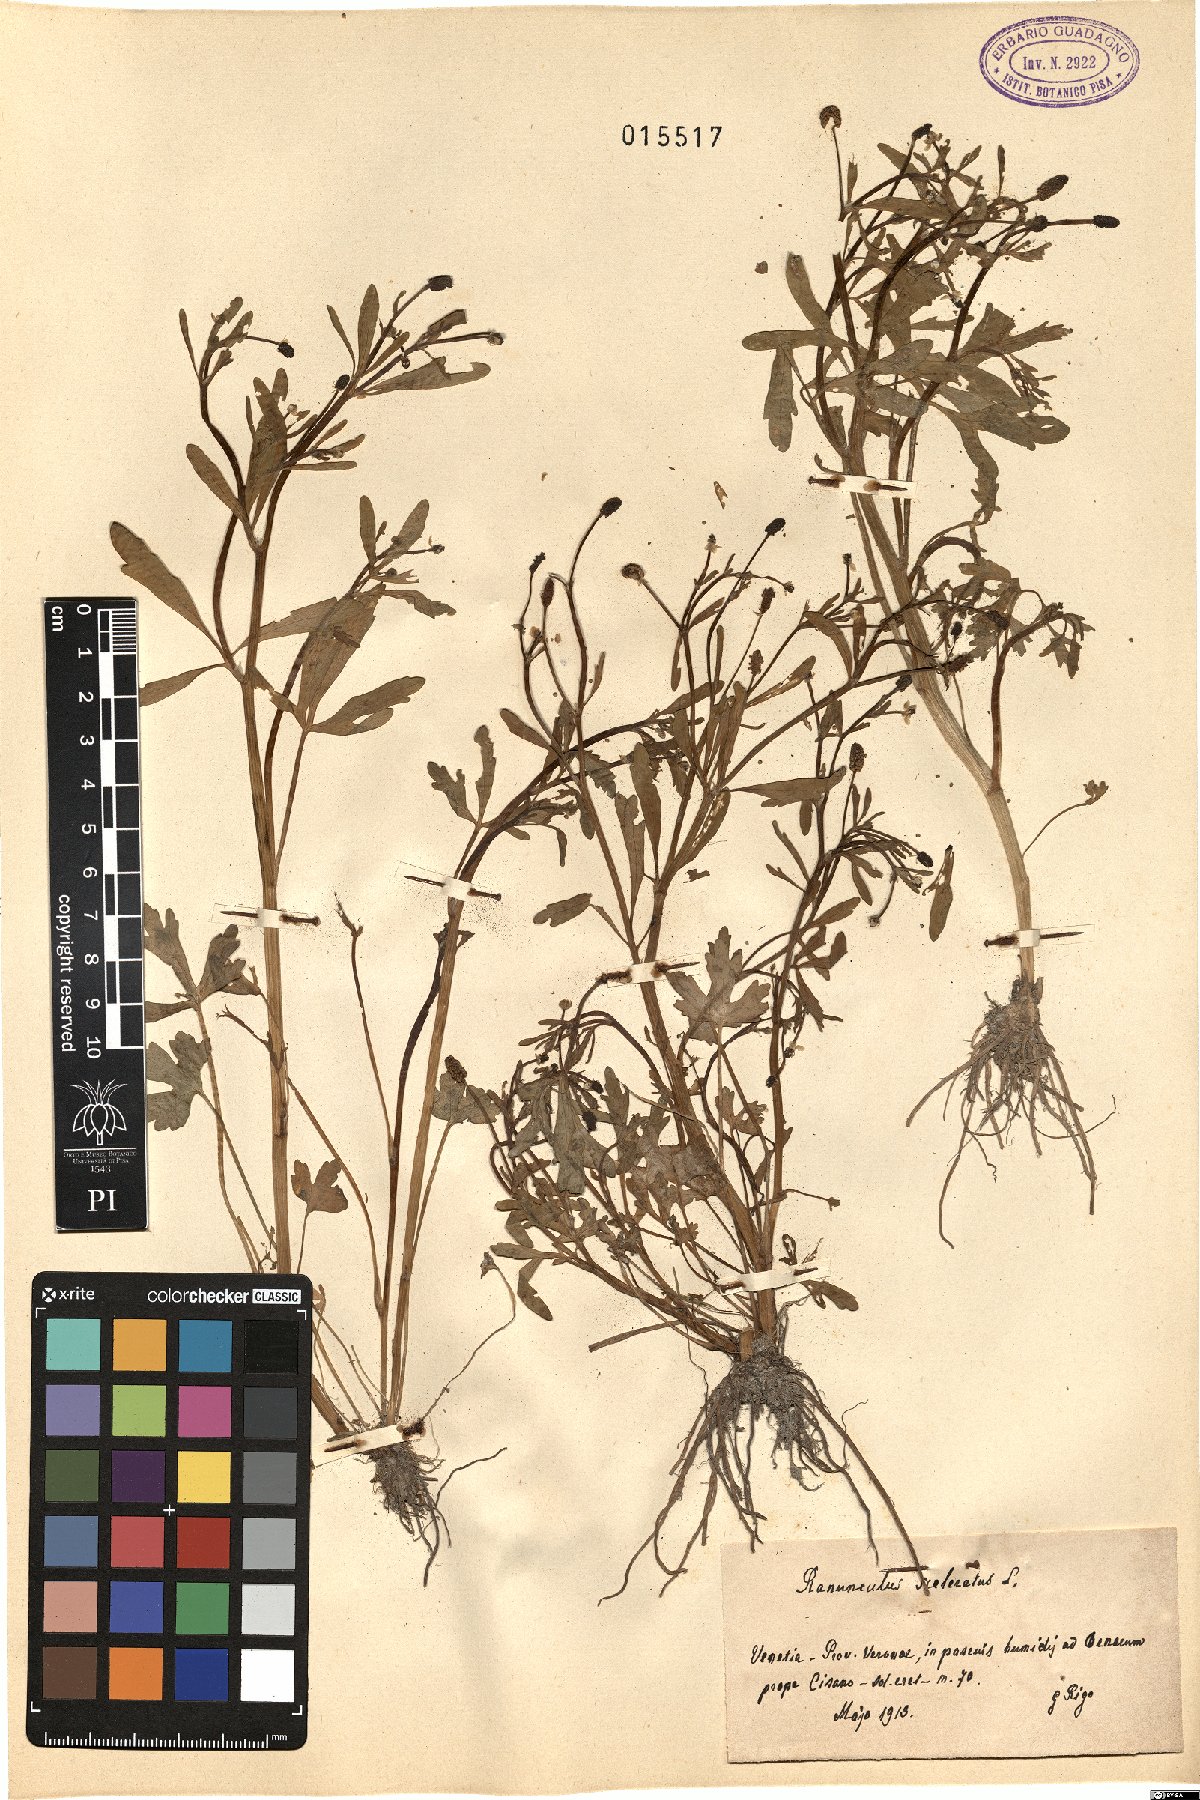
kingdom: Plantae
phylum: Tracheophyta
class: Magnoliopsida
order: Ranunculales
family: Ranunculaceae
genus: Ranunculus
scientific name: Ranunculus sceleratus
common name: Celery-leaved buttercup
